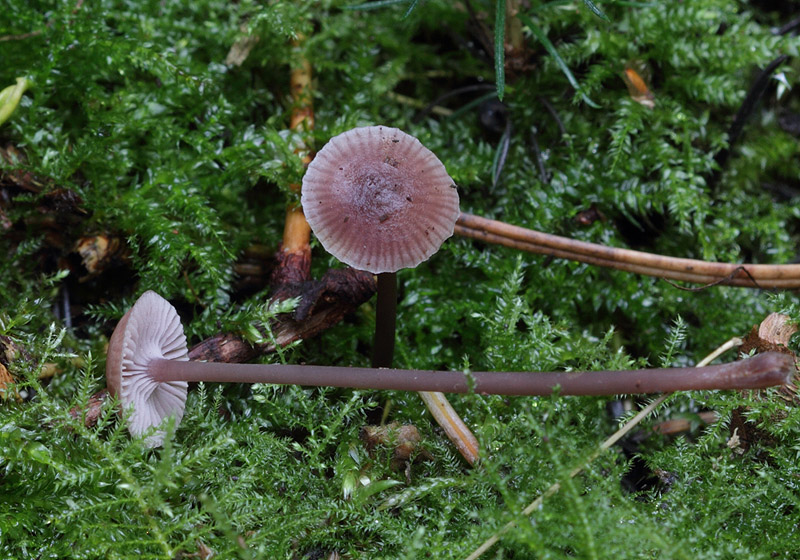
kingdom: Fungi
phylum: Basidiomycota
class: Agaricomycetes
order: Agaricales
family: Mycenaceae
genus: Mycena
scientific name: Mycena pearsoniana
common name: lillabrun huesvamp
